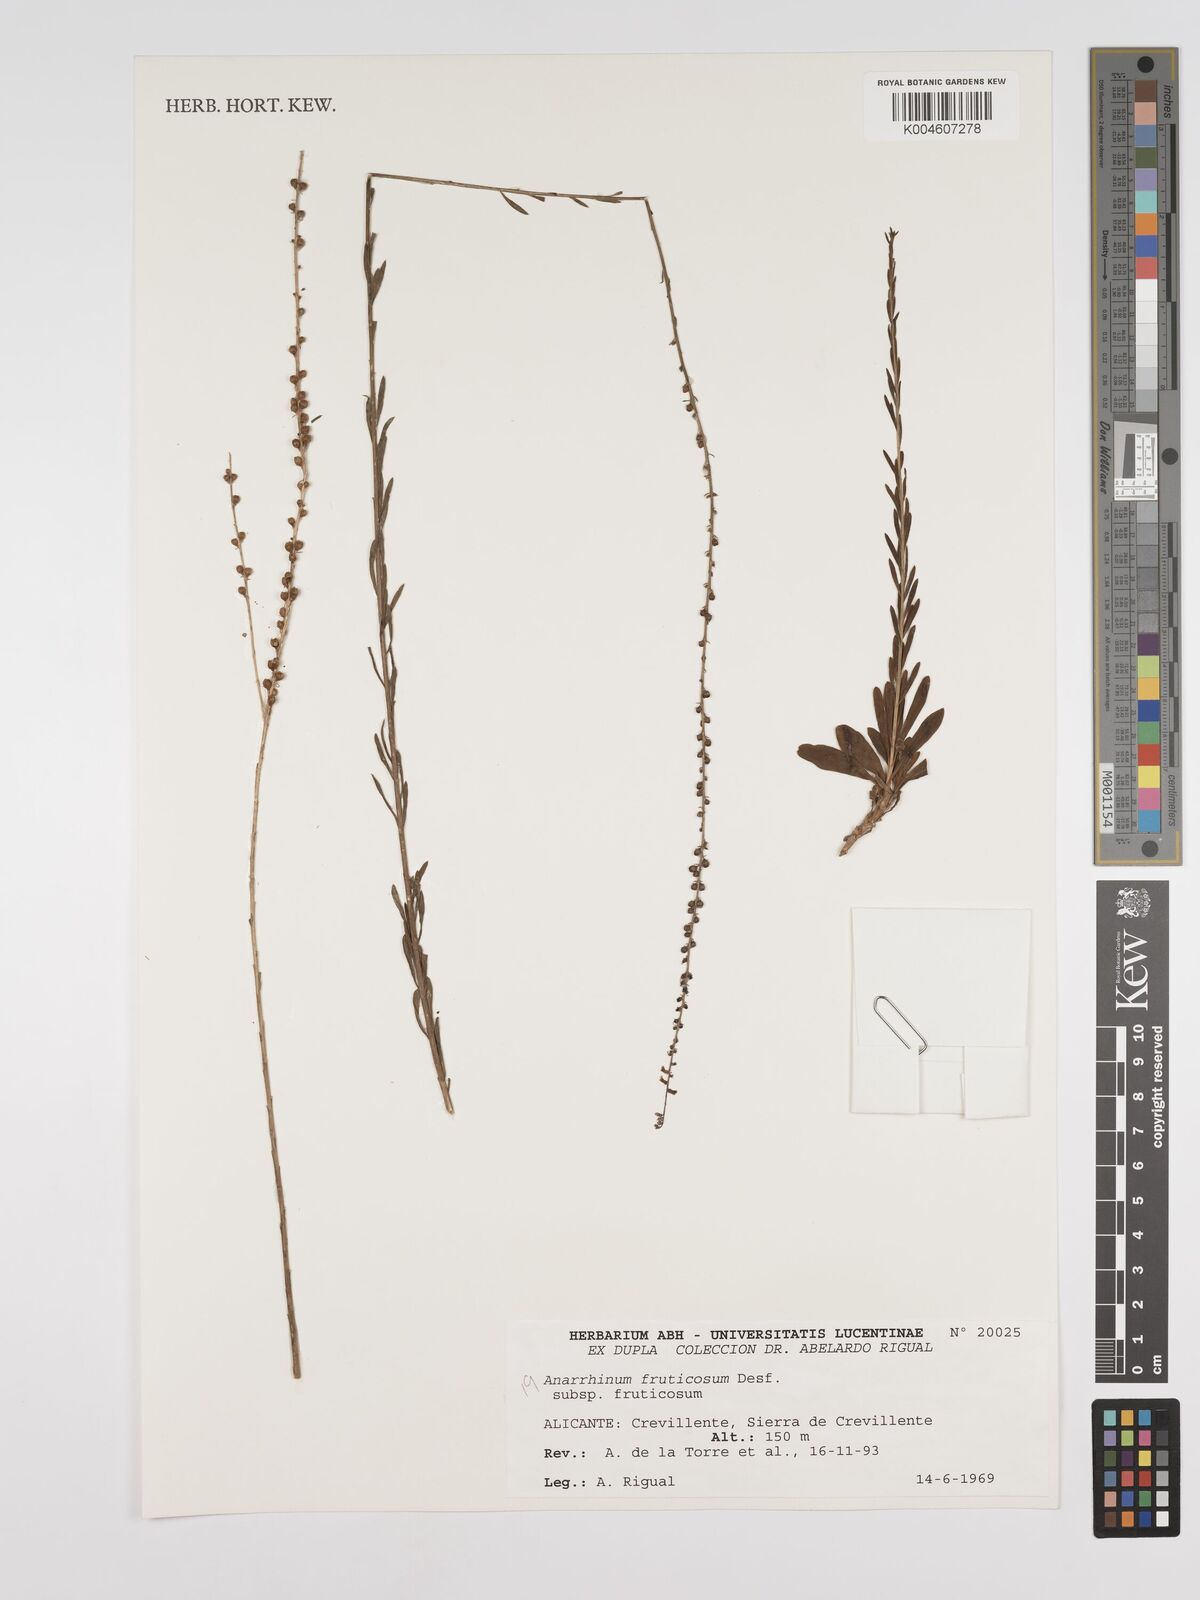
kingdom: Plantae
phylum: Tracheophyta
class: Magnoliopsida
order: Lamiales
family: Plantaginaceae
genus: Anarrhinum
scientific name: Anarrhinum
